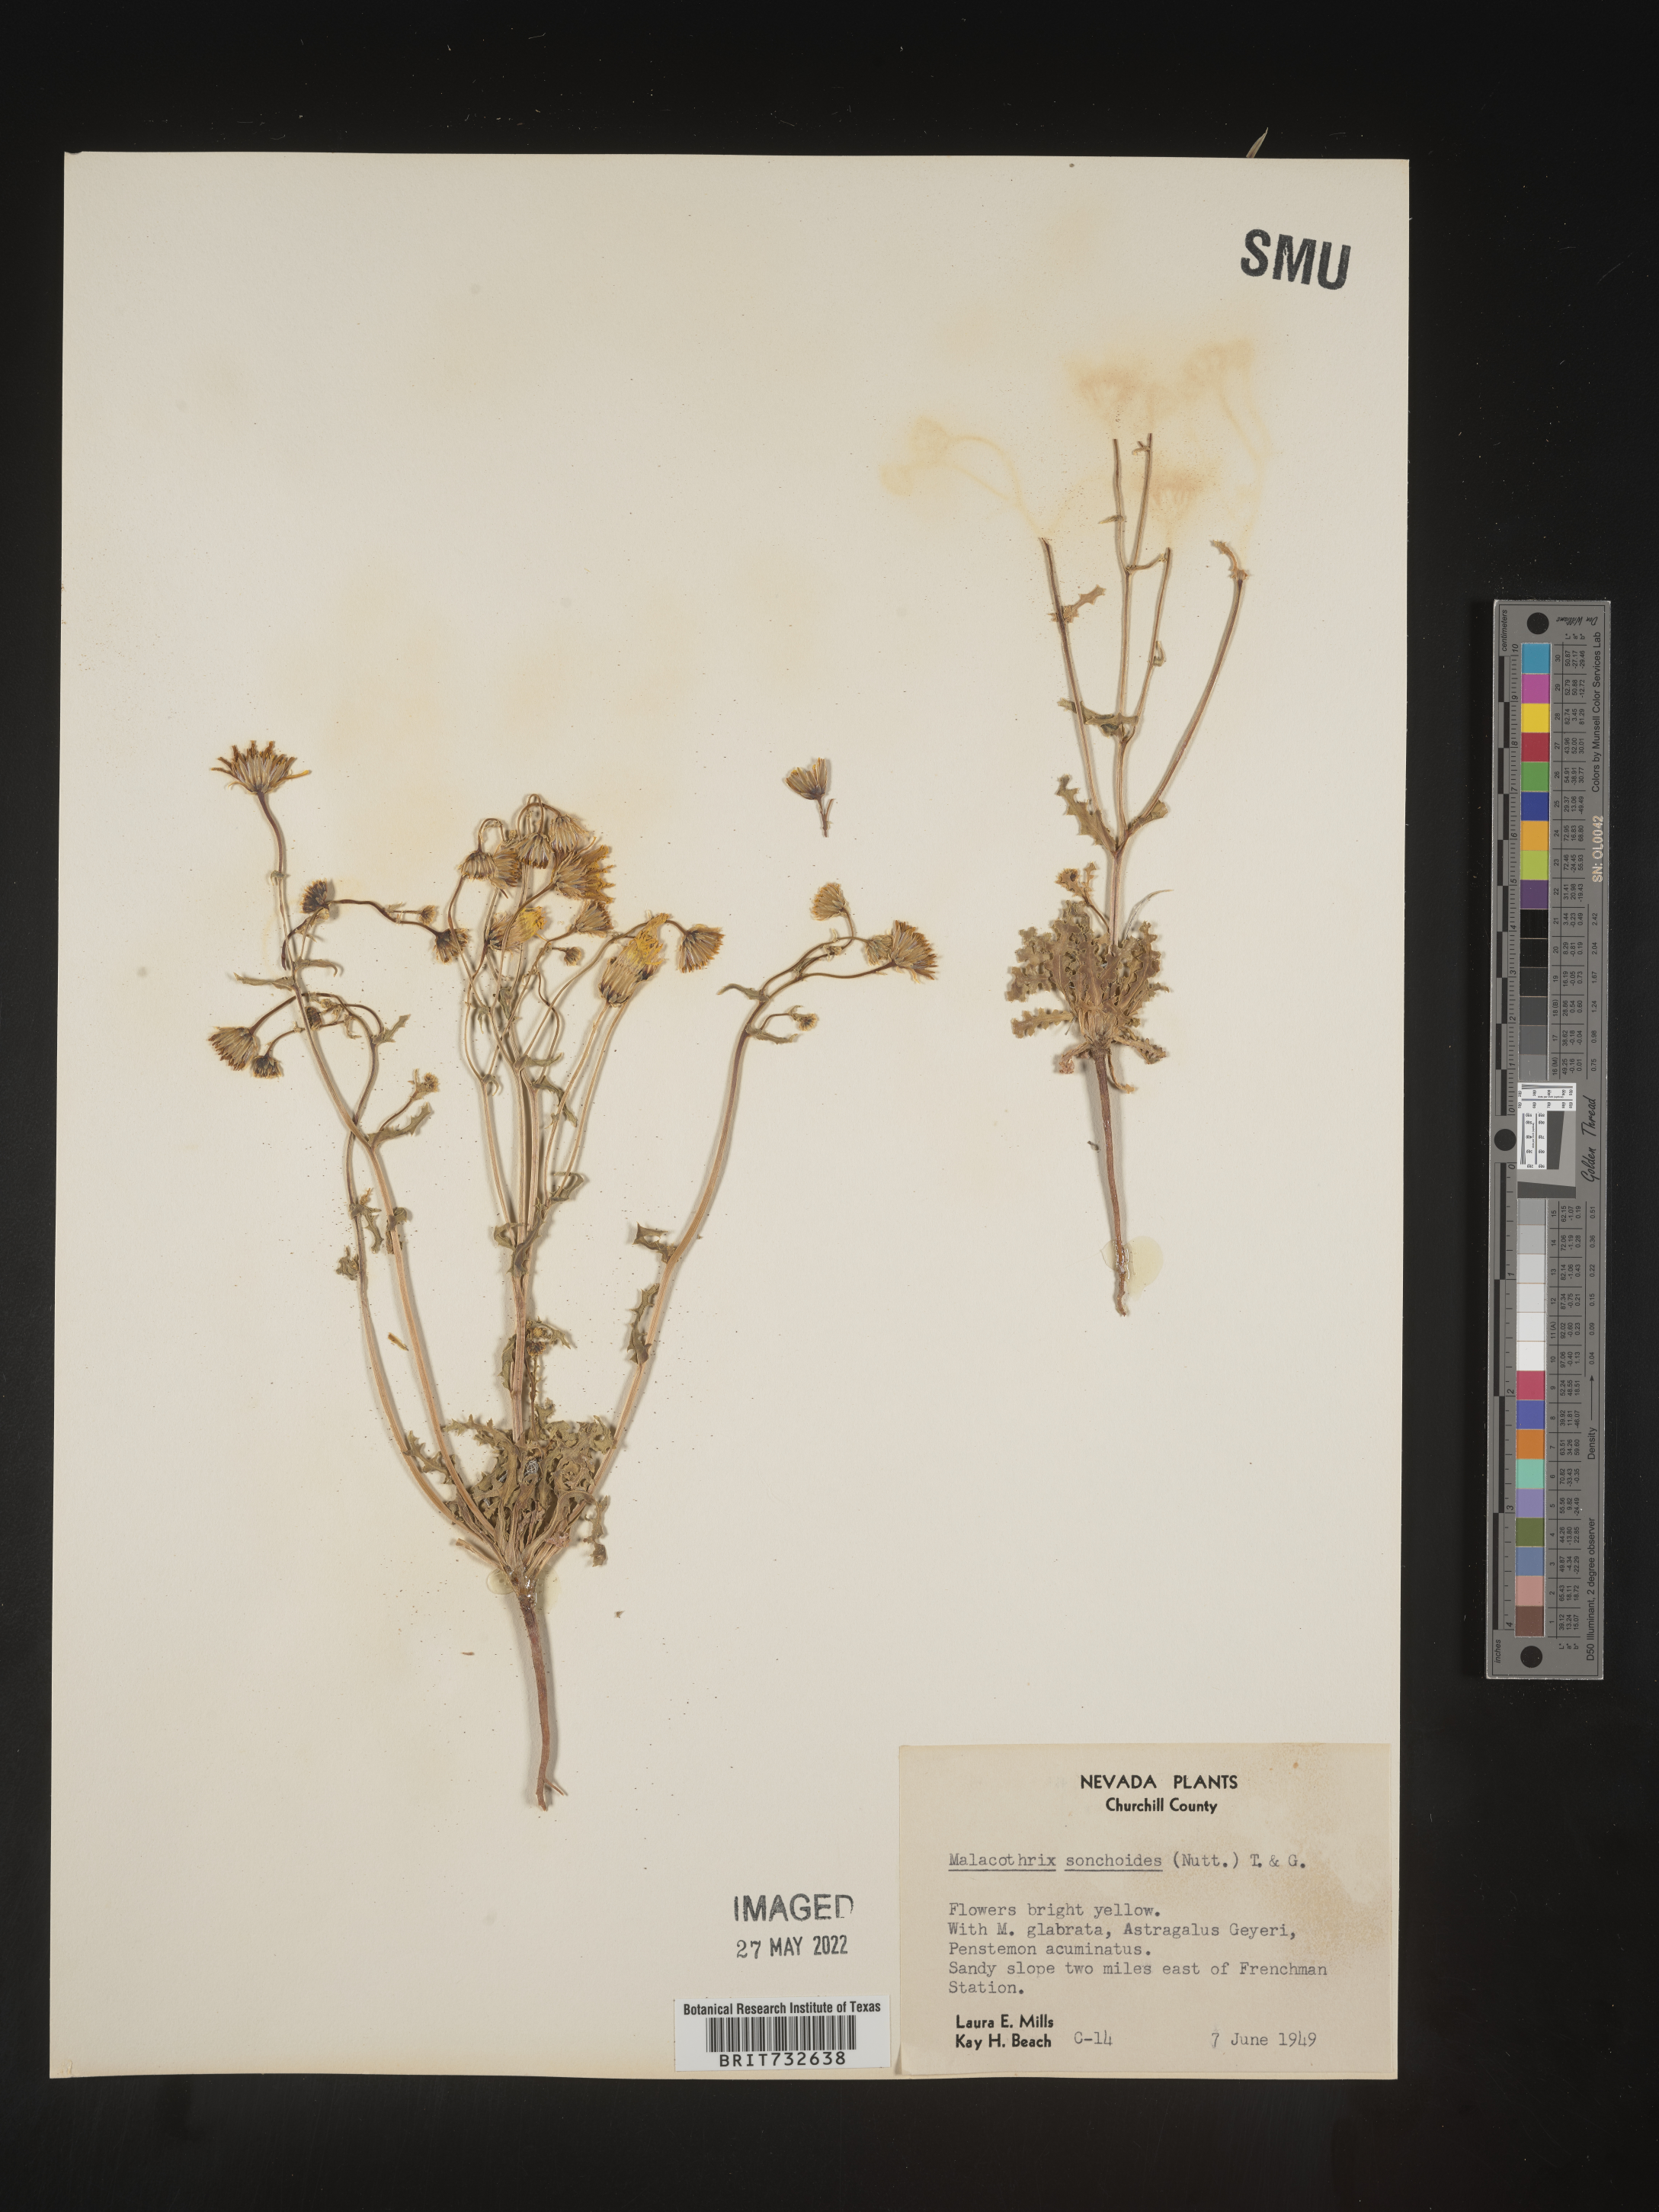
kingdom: Plantae
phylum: Tracheophyta
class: Magnoliopsida
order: Asterales
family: Asteraceae
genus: Malacothrix
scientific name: Malacothrix sonchoides
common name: Sow-thistle desert-dandelion
